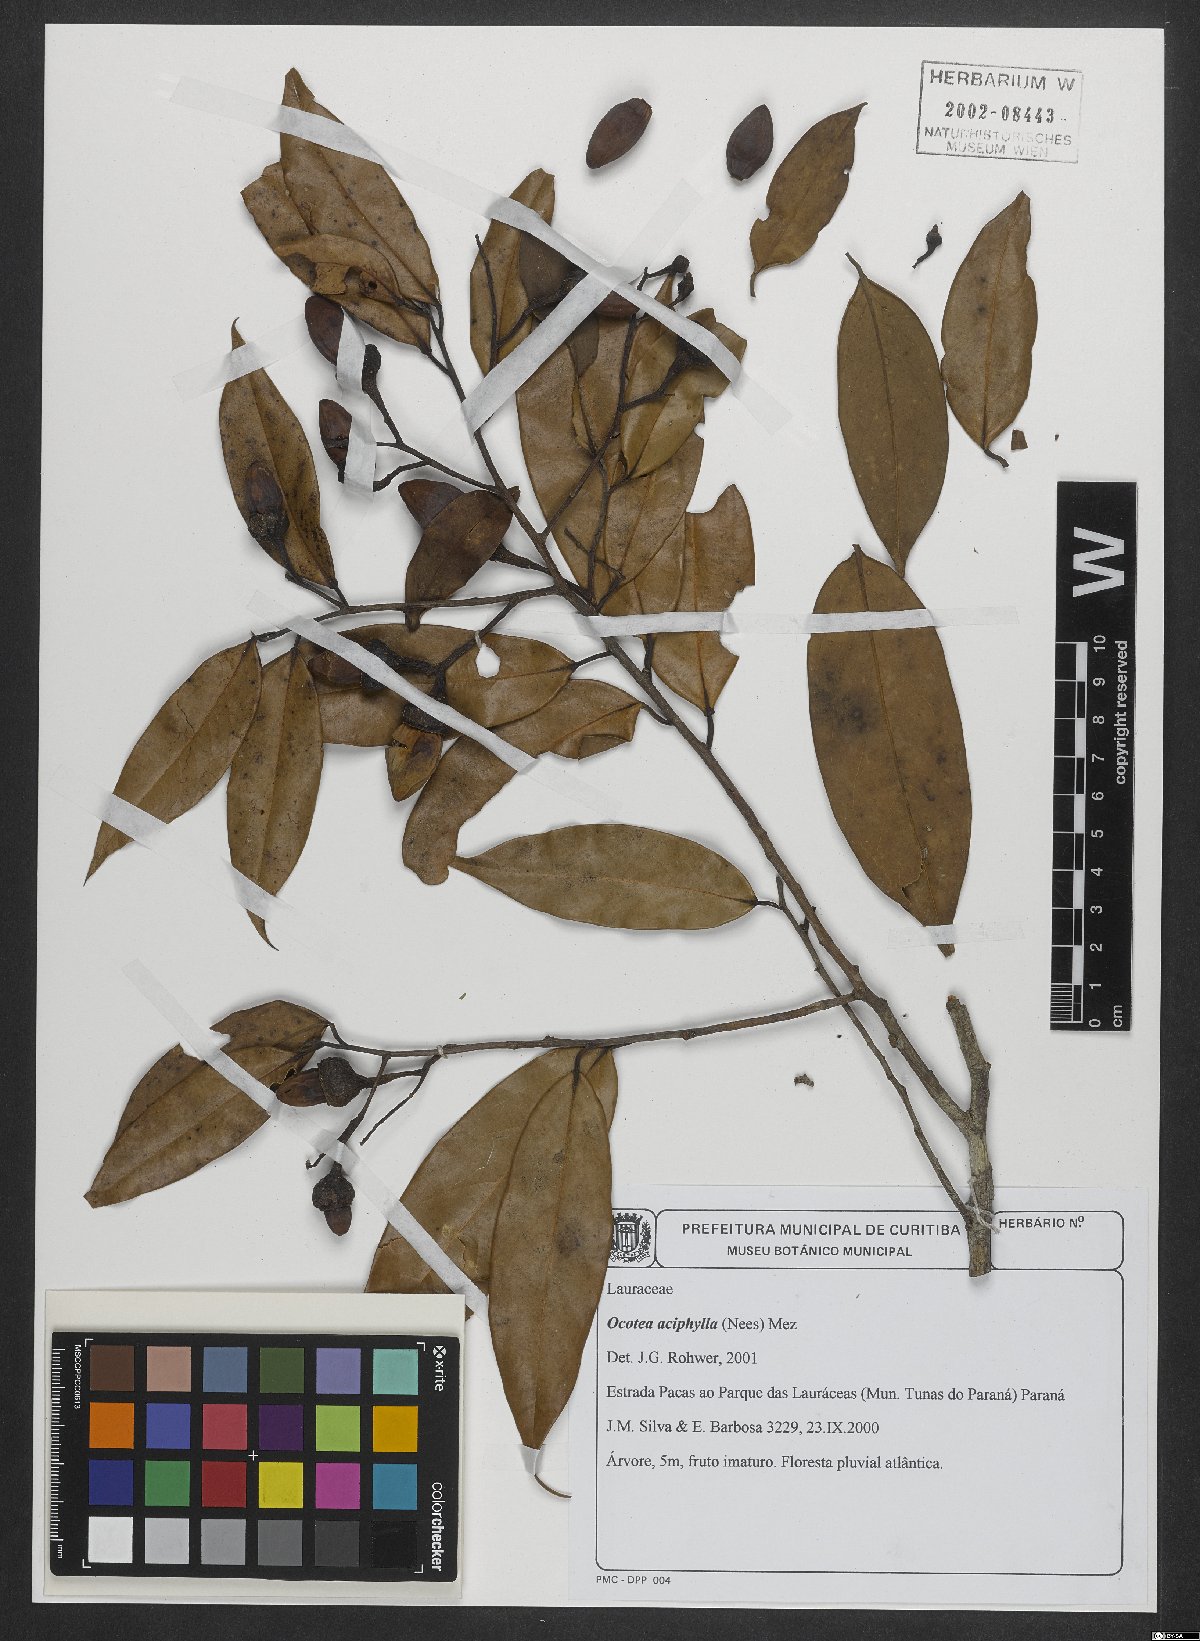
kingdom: Plantae
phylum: Tracheophyta
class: Magnoliopsida
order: Laurales
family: Lauraceae
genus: Ocotea
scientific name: Ocotea aciphylla
